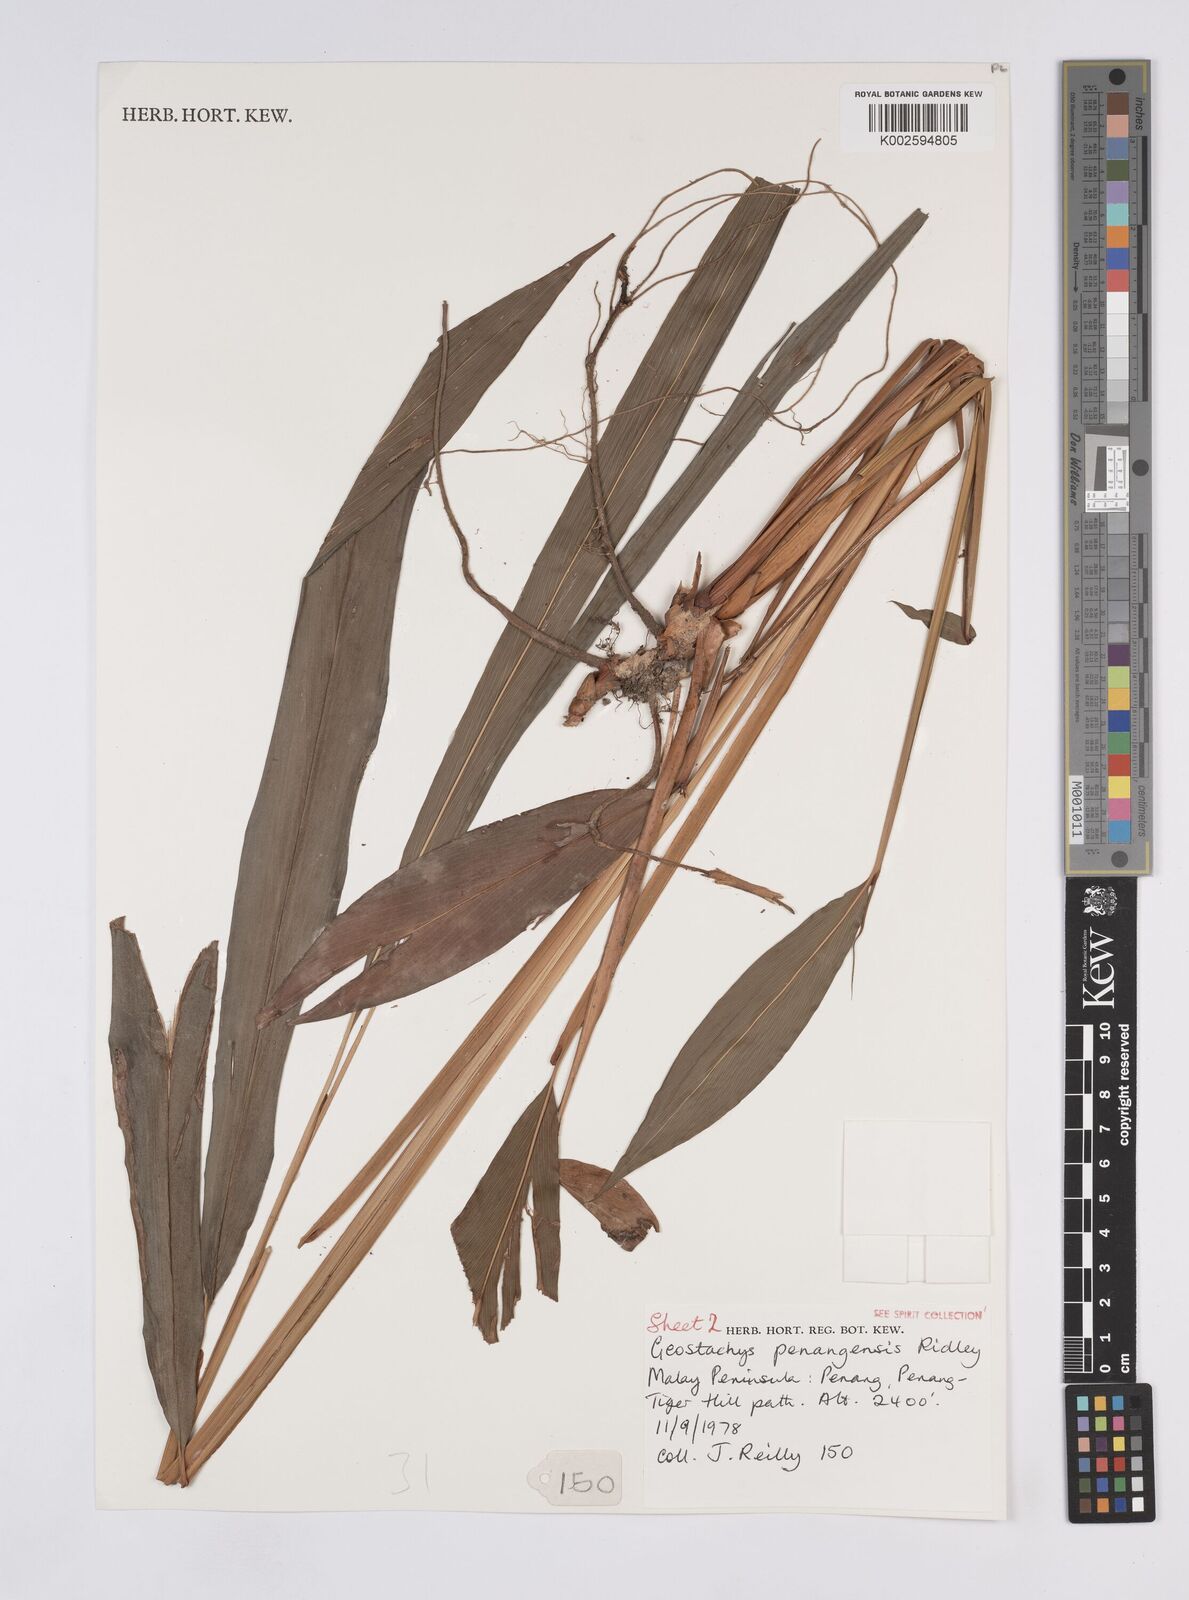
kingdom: Plantae
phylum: Tracheophyta
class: Liliopsida
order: Zingiberales
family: Zingiberaceae
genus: Geostachys
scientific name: Geostachys penangensis
